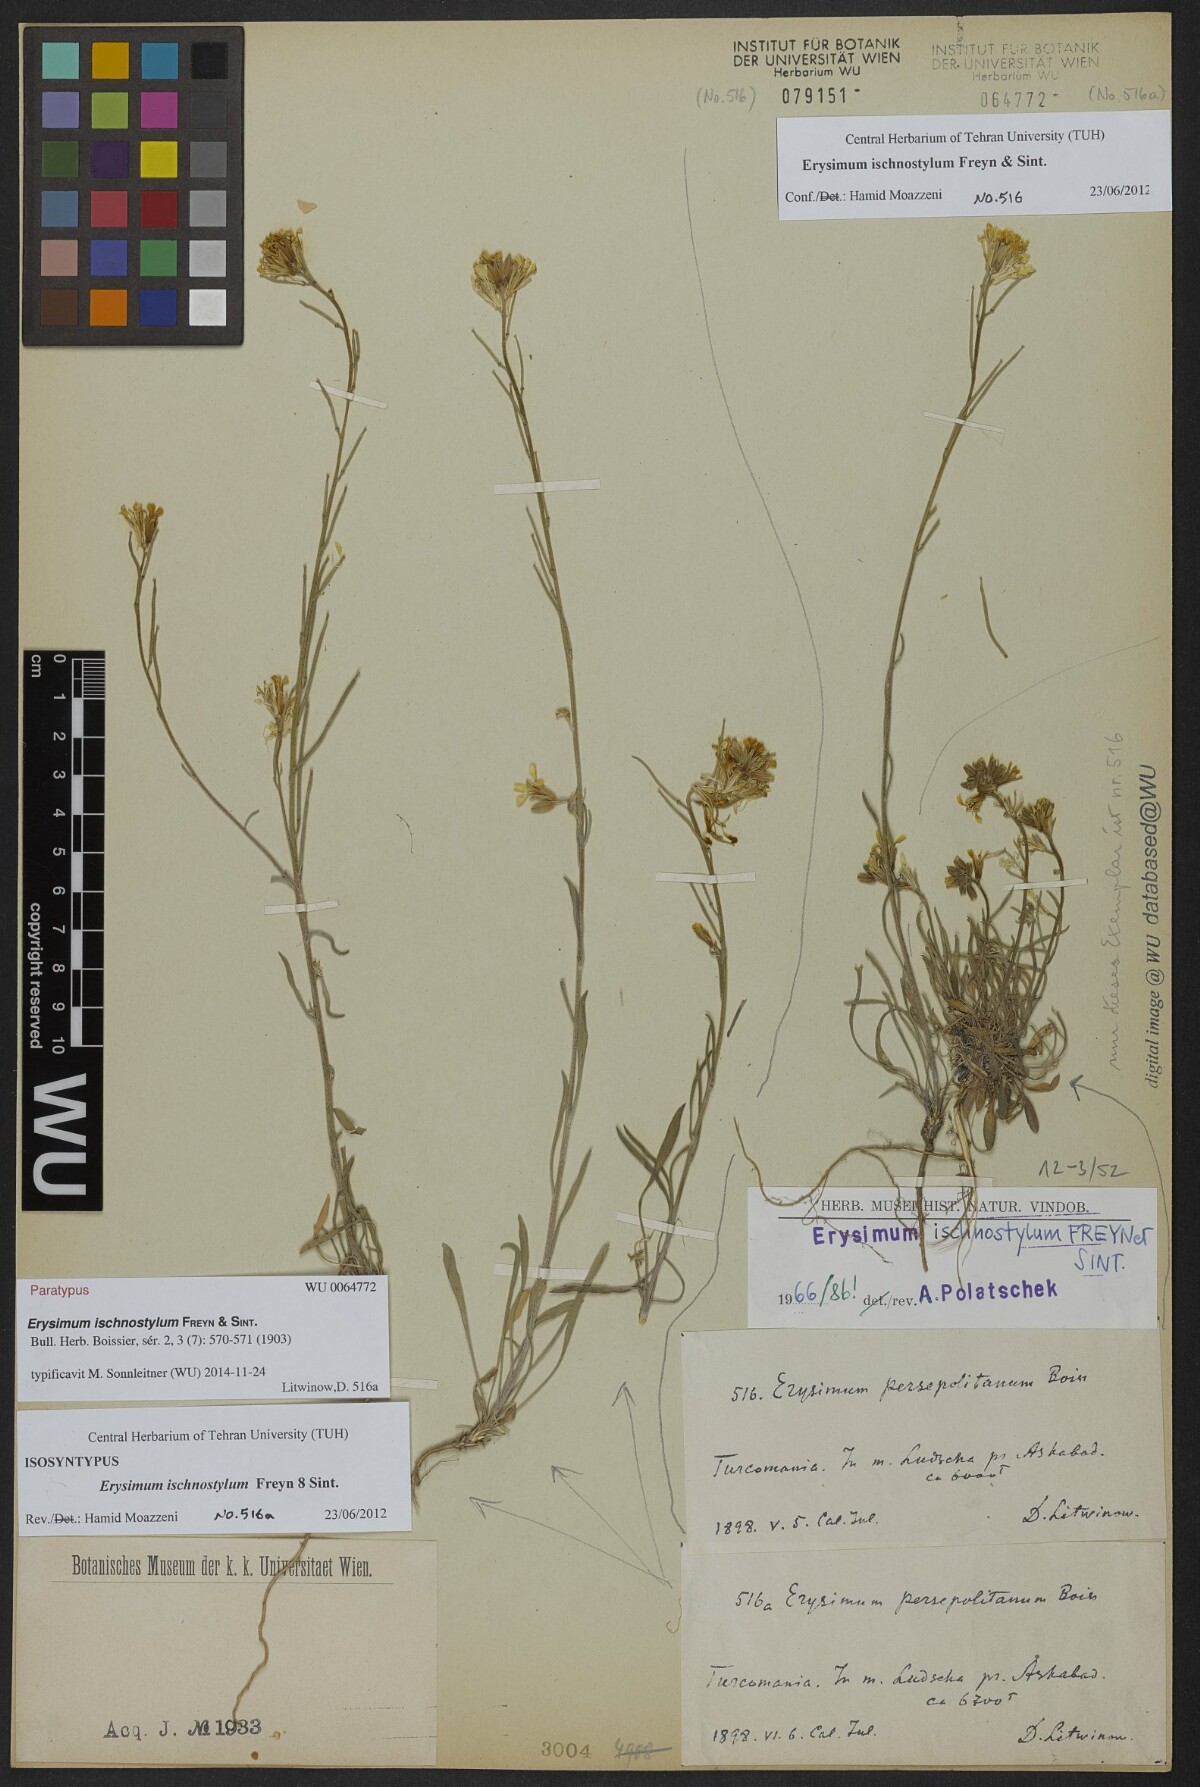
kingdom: Plantae
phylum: Tracheophyta
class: Magnoliopsida
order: Brassicales
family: Brassicaceae
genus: Erysimum
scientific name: Erysimum ischnostylum
